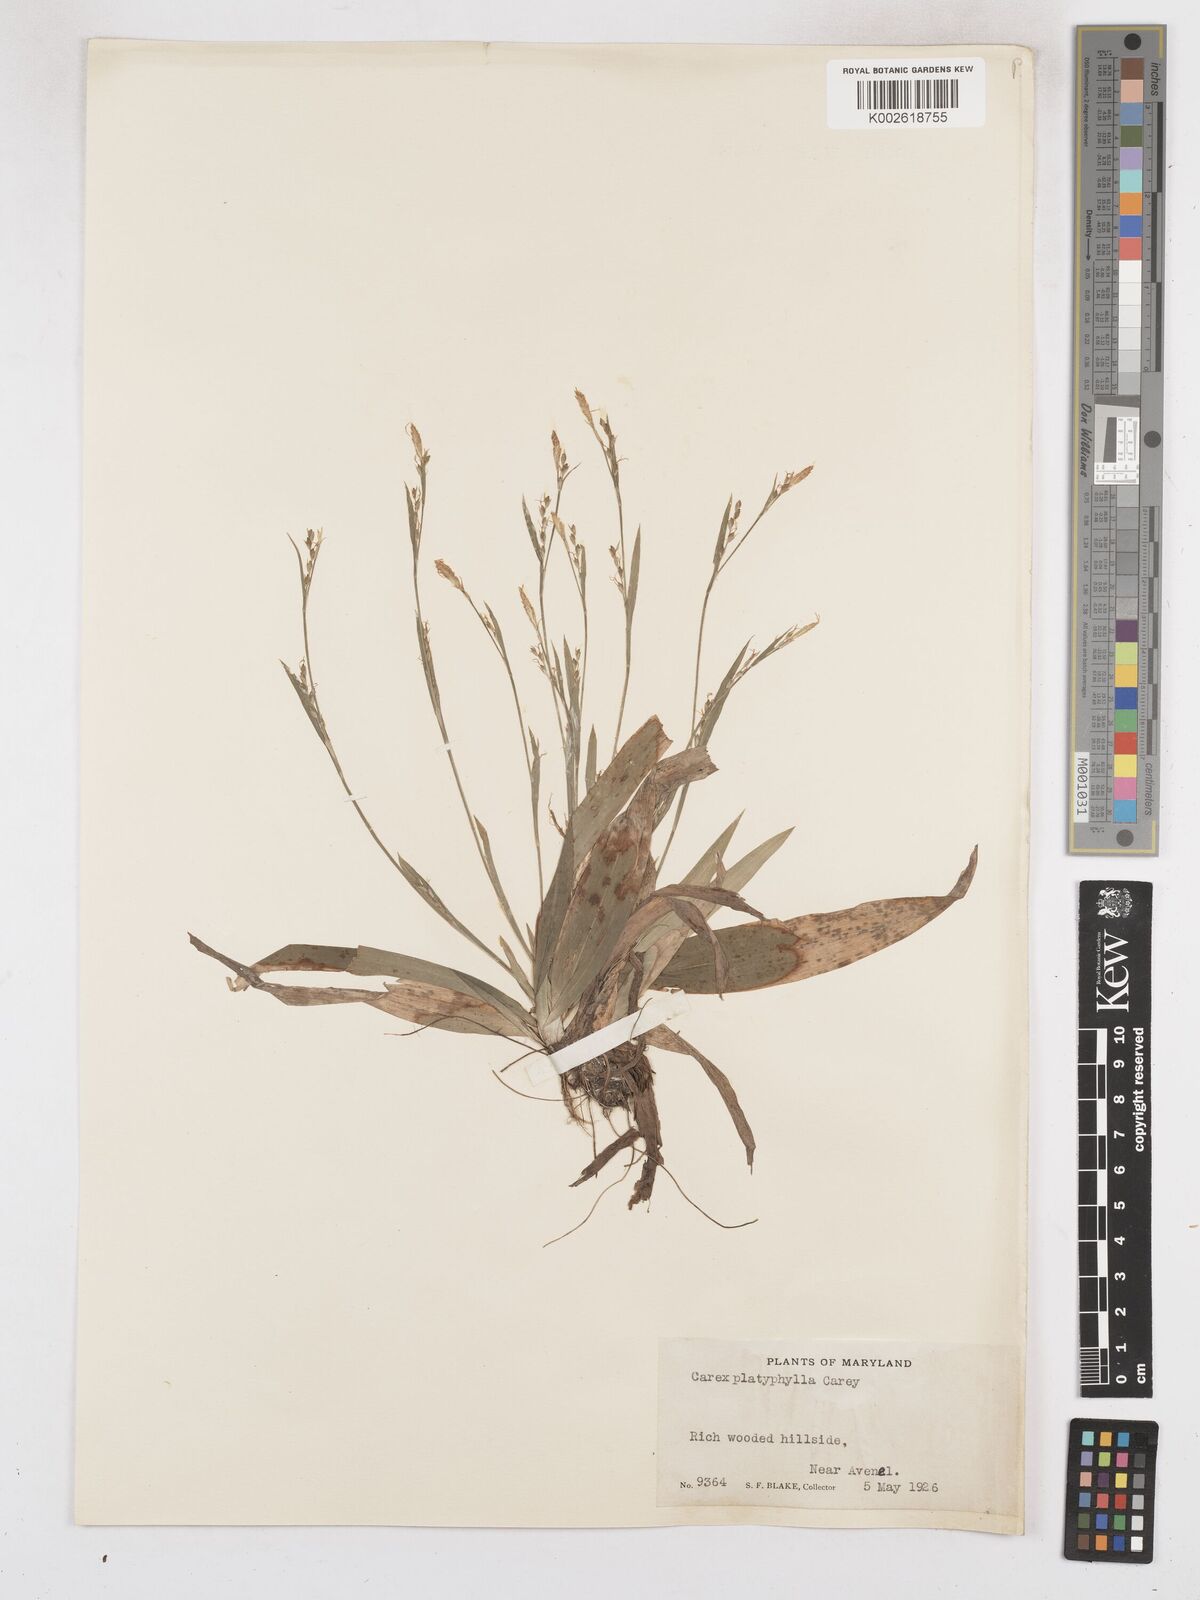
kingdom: Plantae
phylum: Tracheophyta
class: Liliopsida
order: Poales
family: Cyperaceae
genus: Carex
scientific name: Carex platyphylla
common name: Broad-leaved sedge
